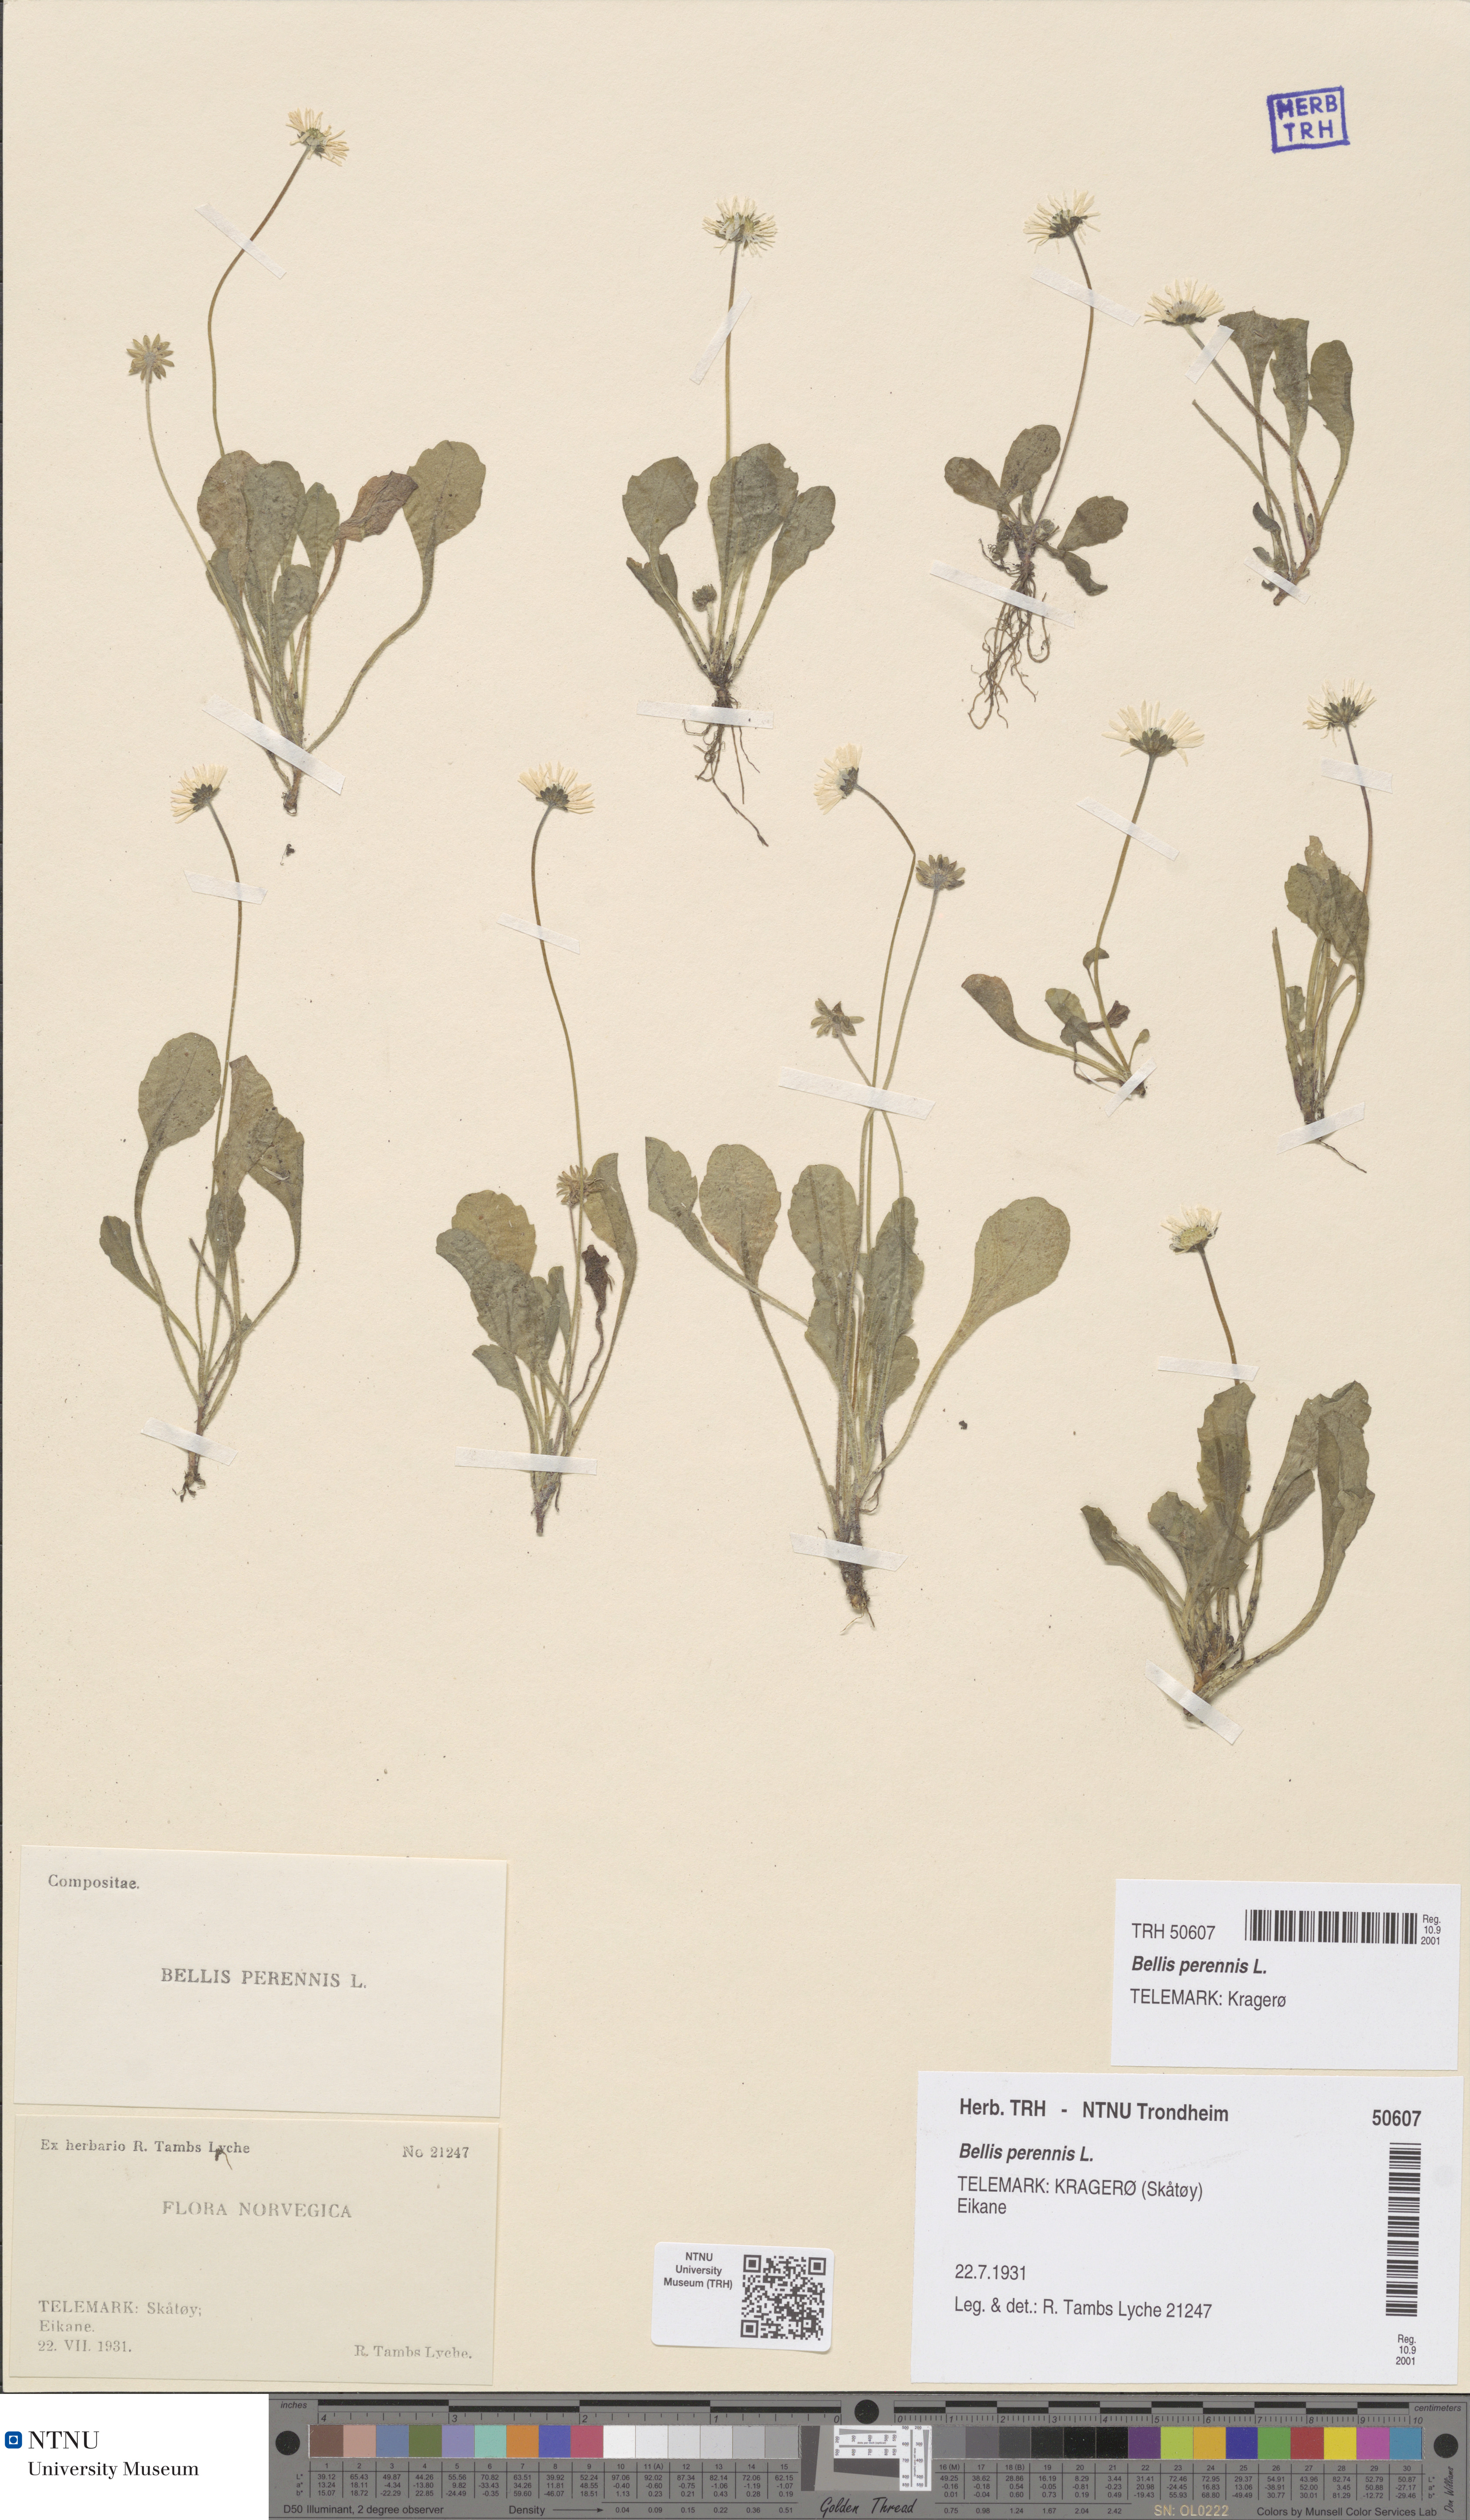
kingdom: Plantae
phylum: Tracheophyta
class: Magnoliopsida
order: Asterales
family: Asteraceae
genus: Bellis
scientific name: Bellis perennis
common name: Lawndaisy
